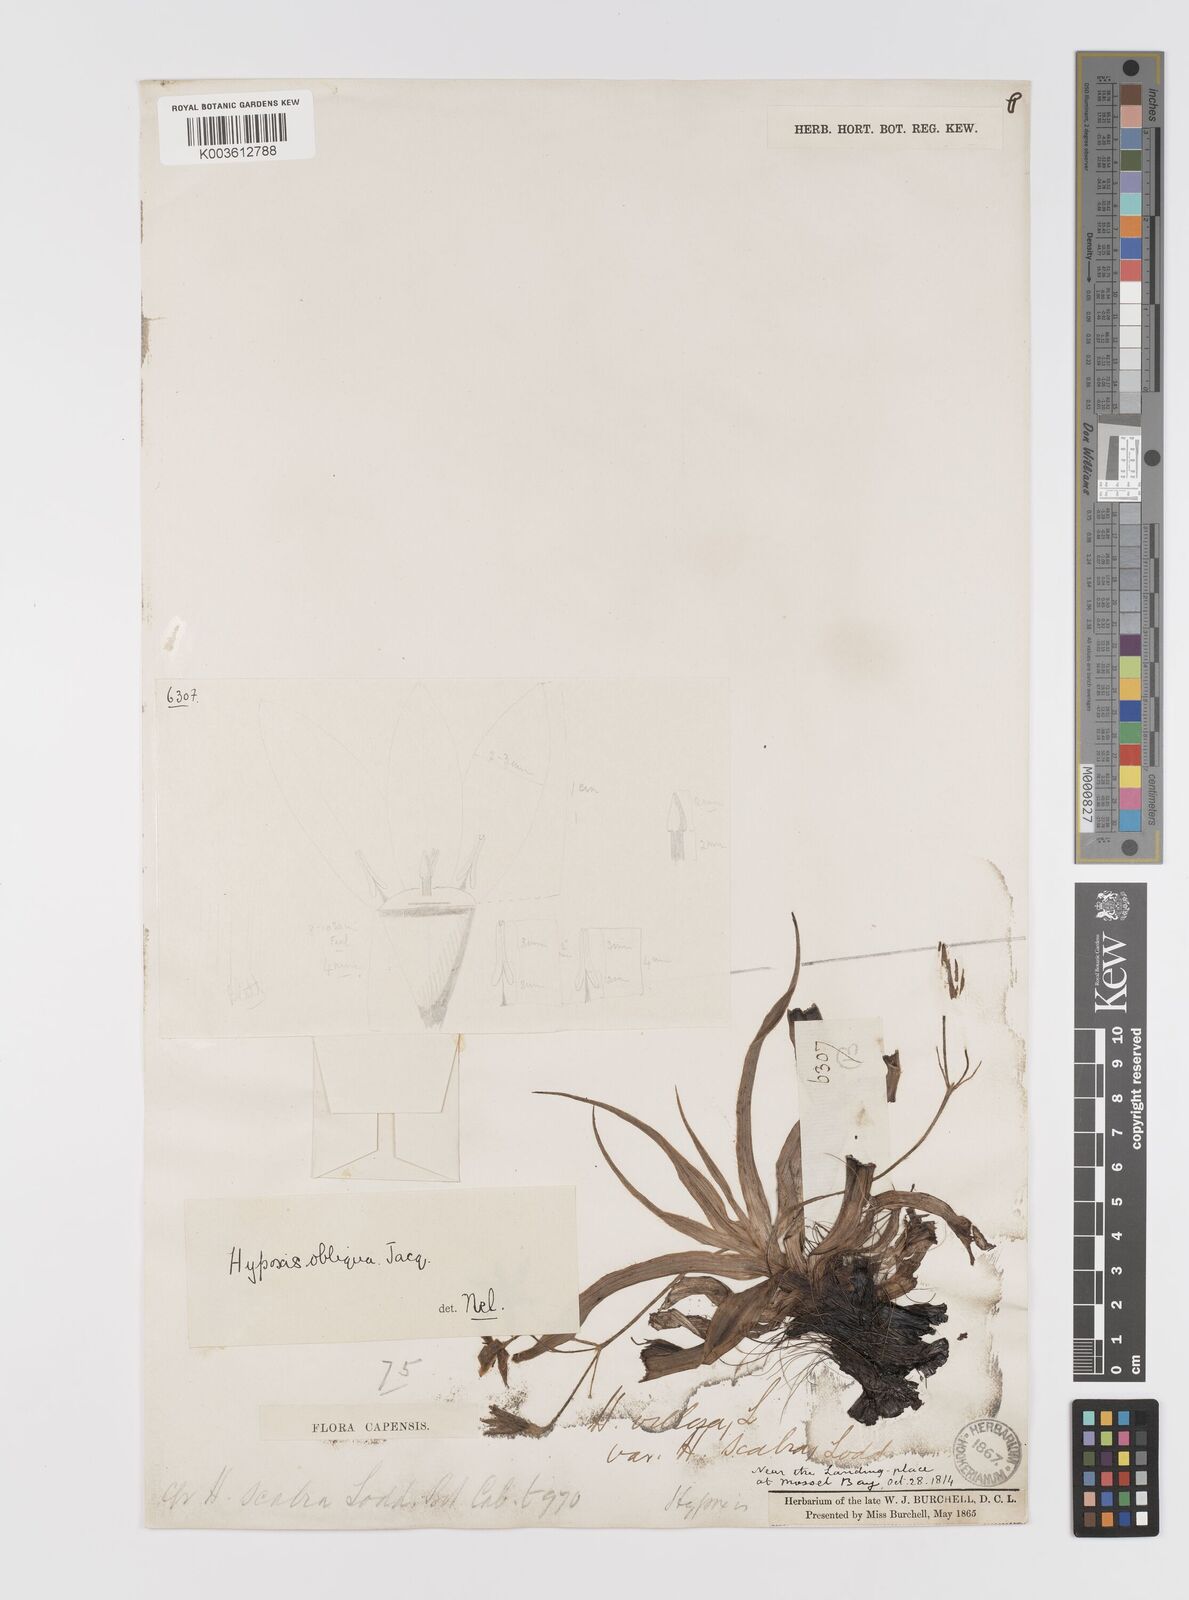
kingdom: Plantae
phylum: Tracheophyta
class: Liliopsida
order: Asparagales
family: Hypoxidaceae
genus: Hypoxis
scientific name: Hypoxis villosa
